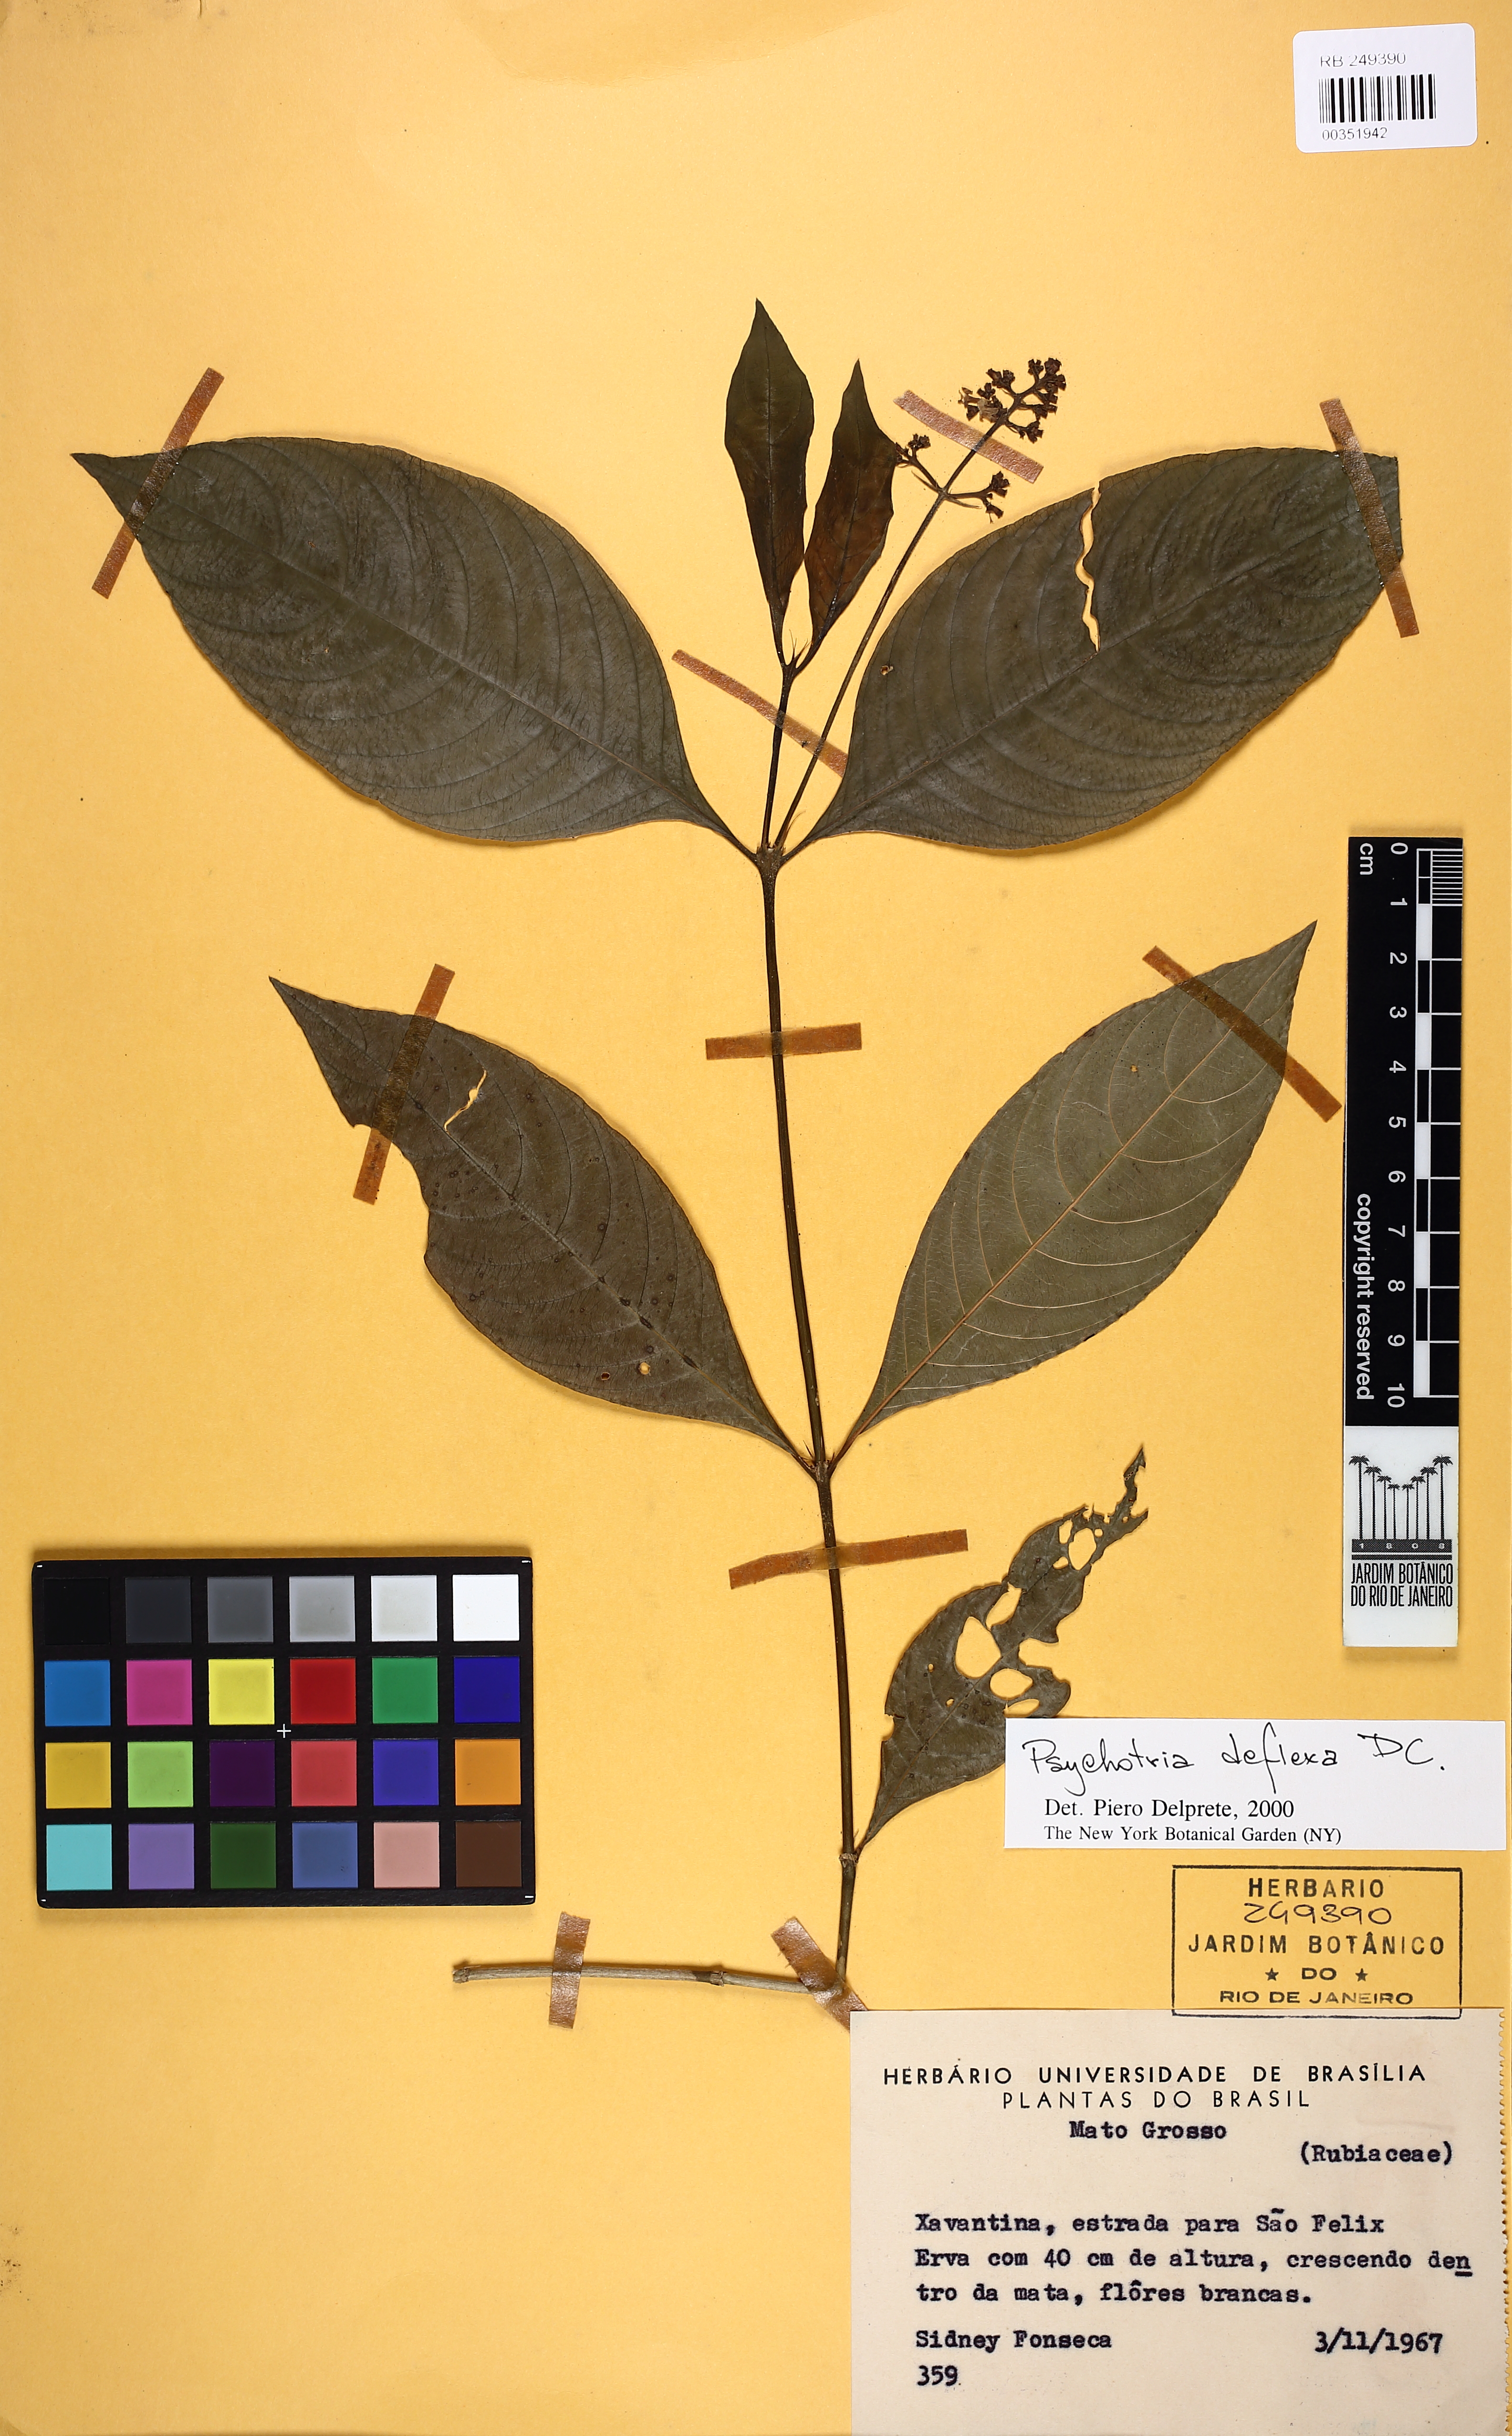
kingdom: Plantae
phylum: Tracheophyta
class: Magnoliopsida
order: Gentianales
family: Rubiaceae
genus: Palicourea
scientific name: Palicourea deflexa
